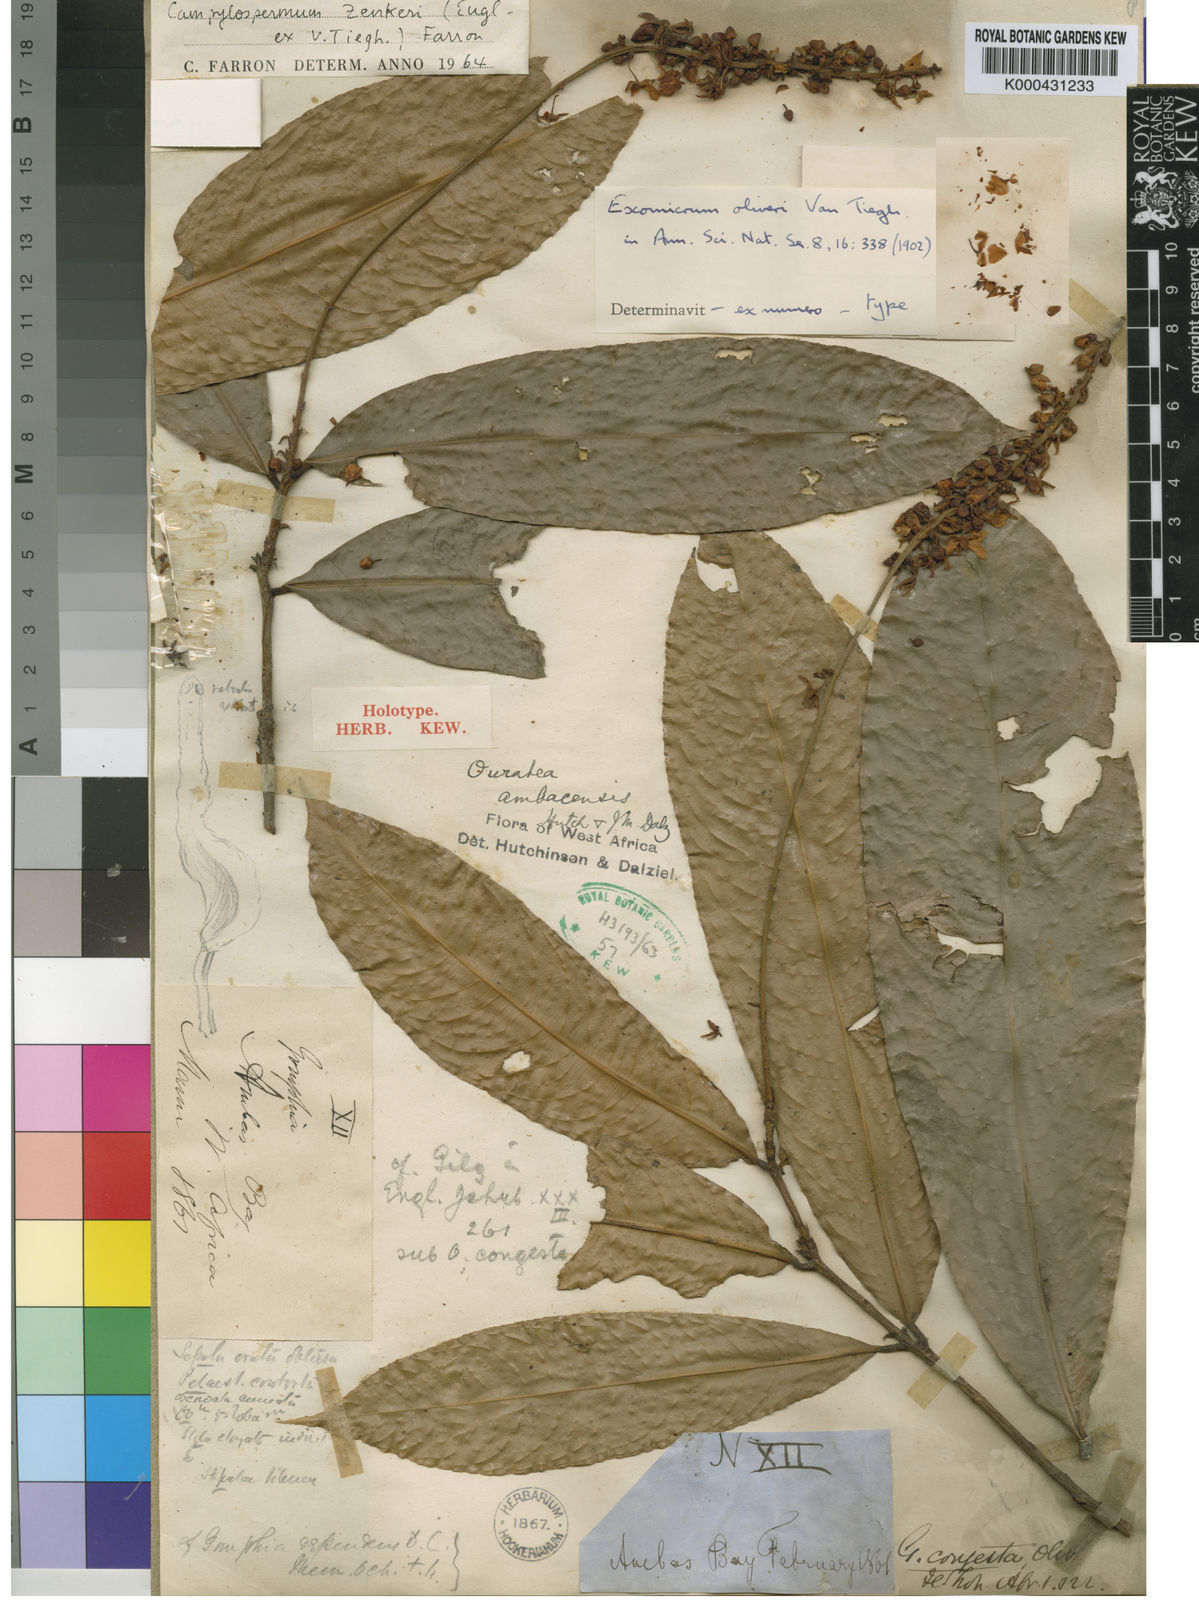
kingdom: Plantae
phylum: Tracheophyta
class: Magnoliopsida
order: Malpighiales
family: Ochnaceae
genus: Campylospermum
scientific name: Campylospermum zenkeri
